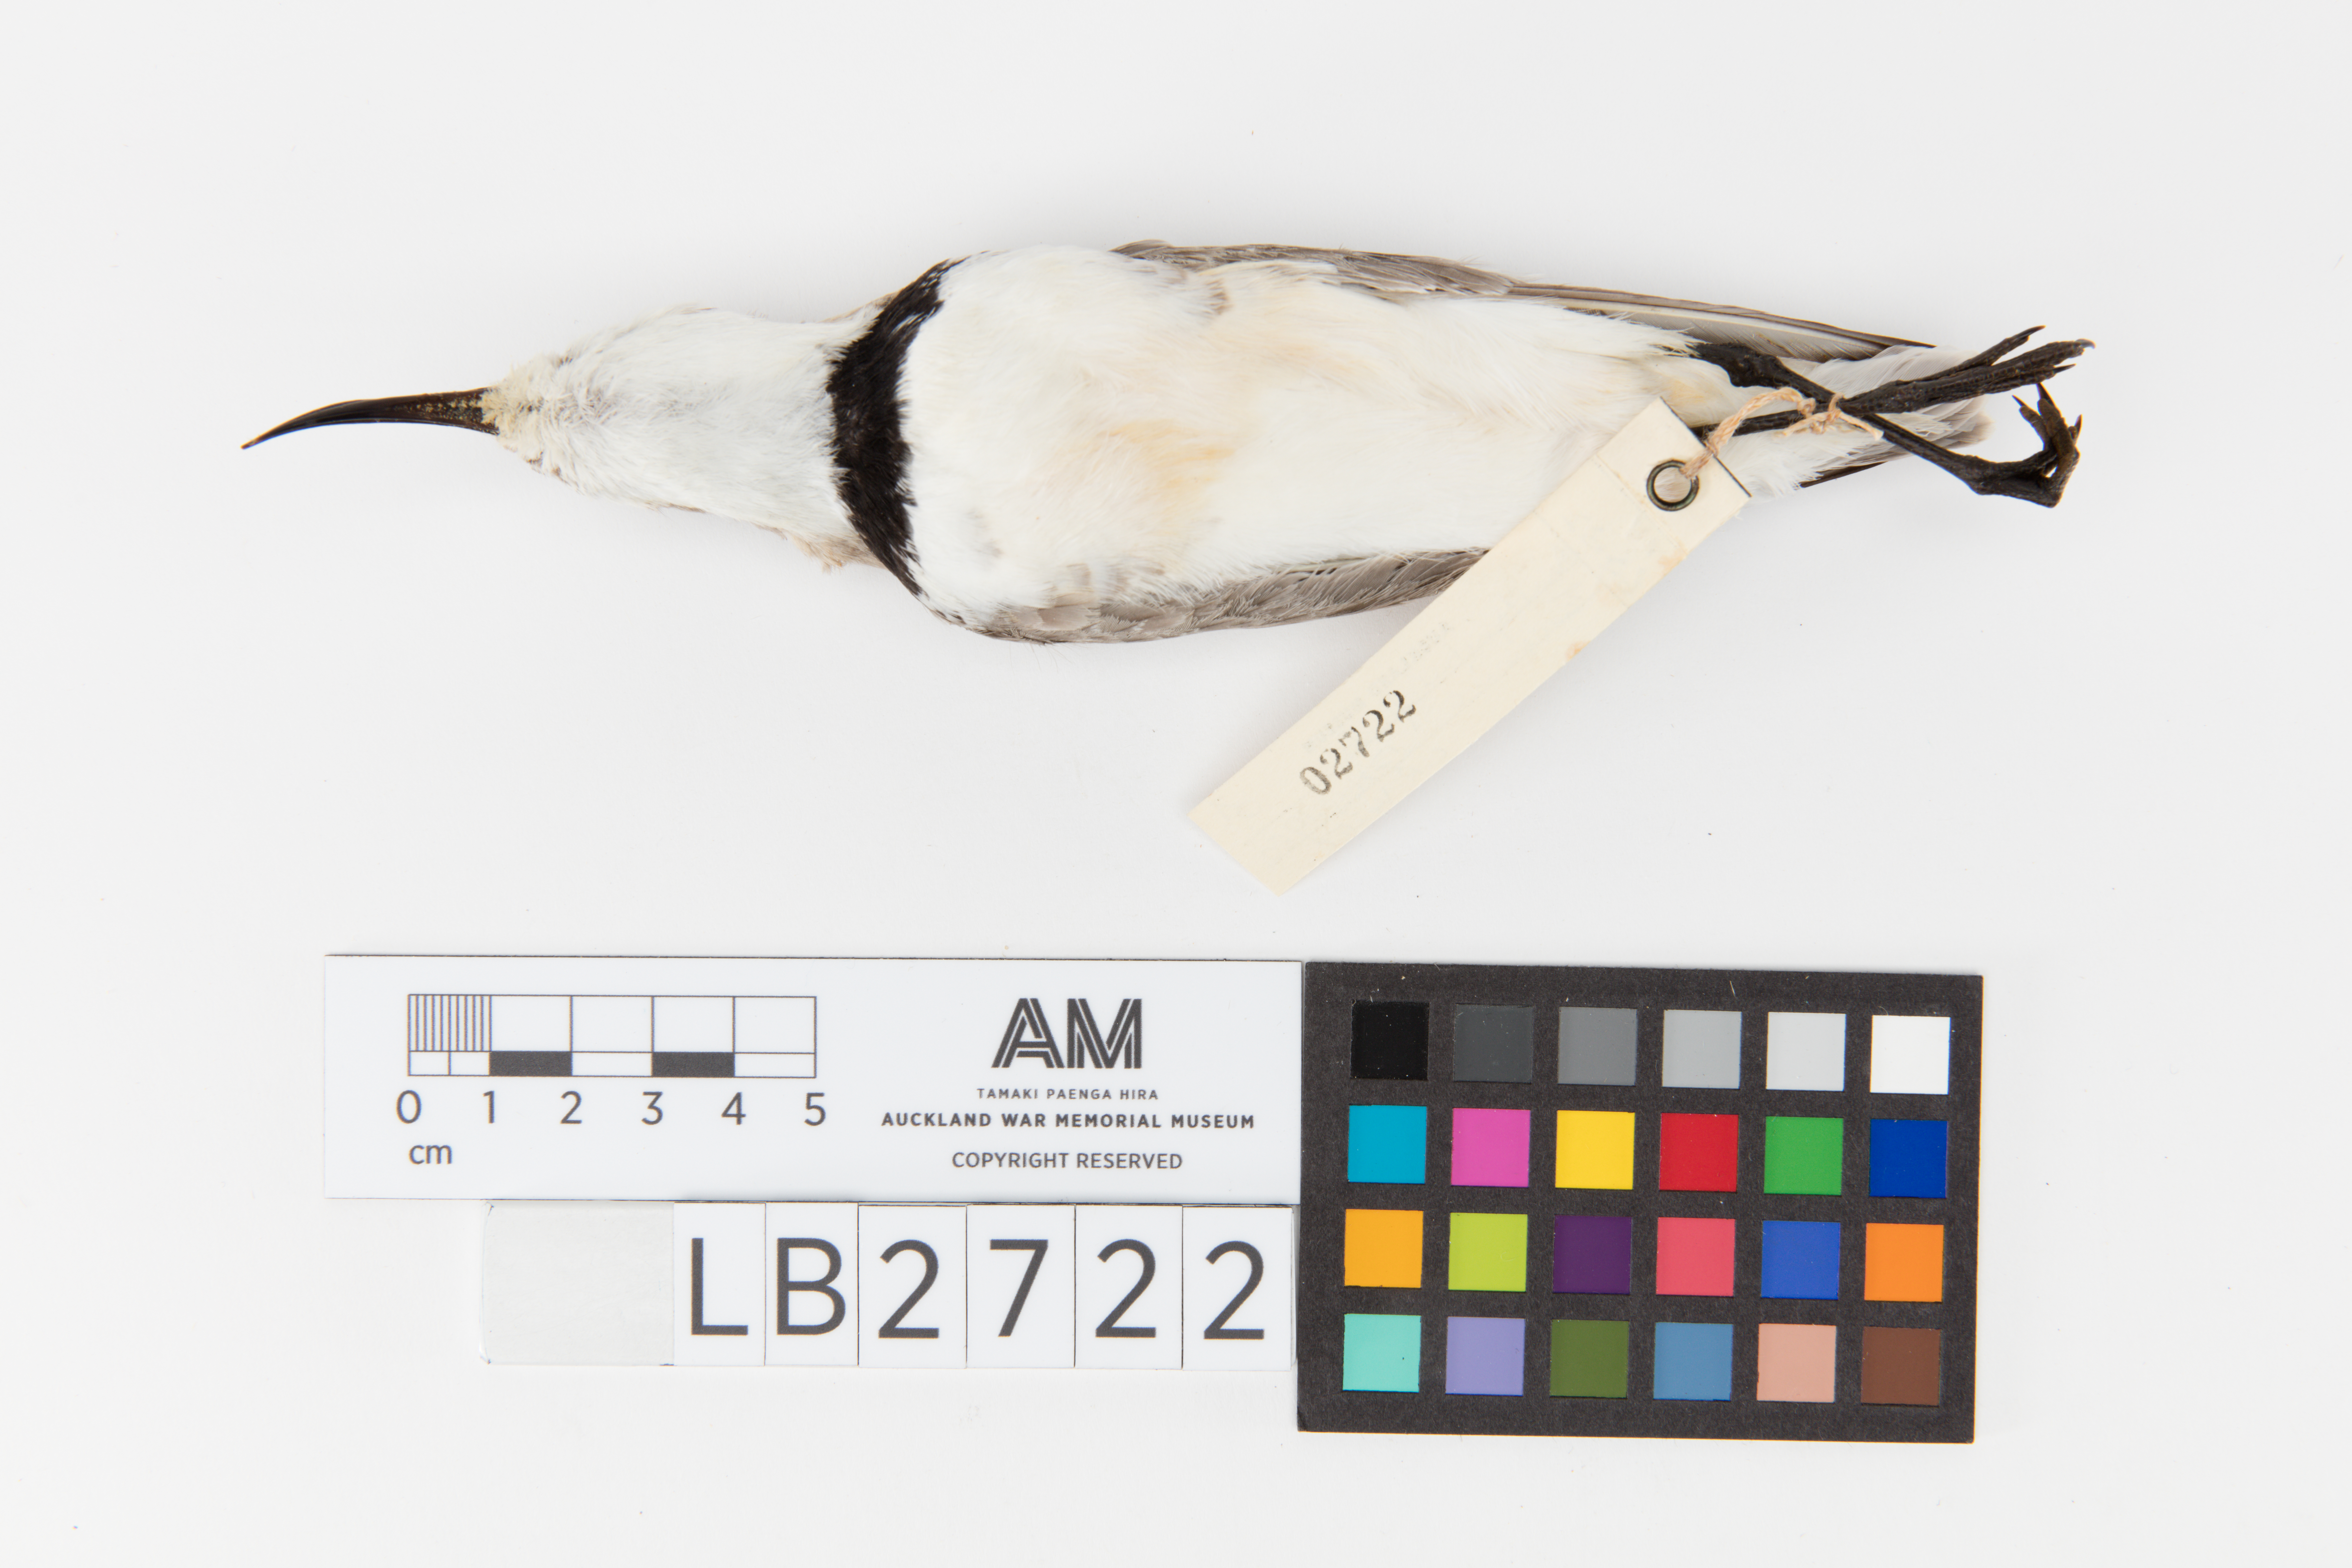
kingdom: Animalia
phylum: Chordata
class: Aves
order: Charadriiformes
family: Charadriidae
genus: Charadrius
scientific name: Charadrius frontalis
